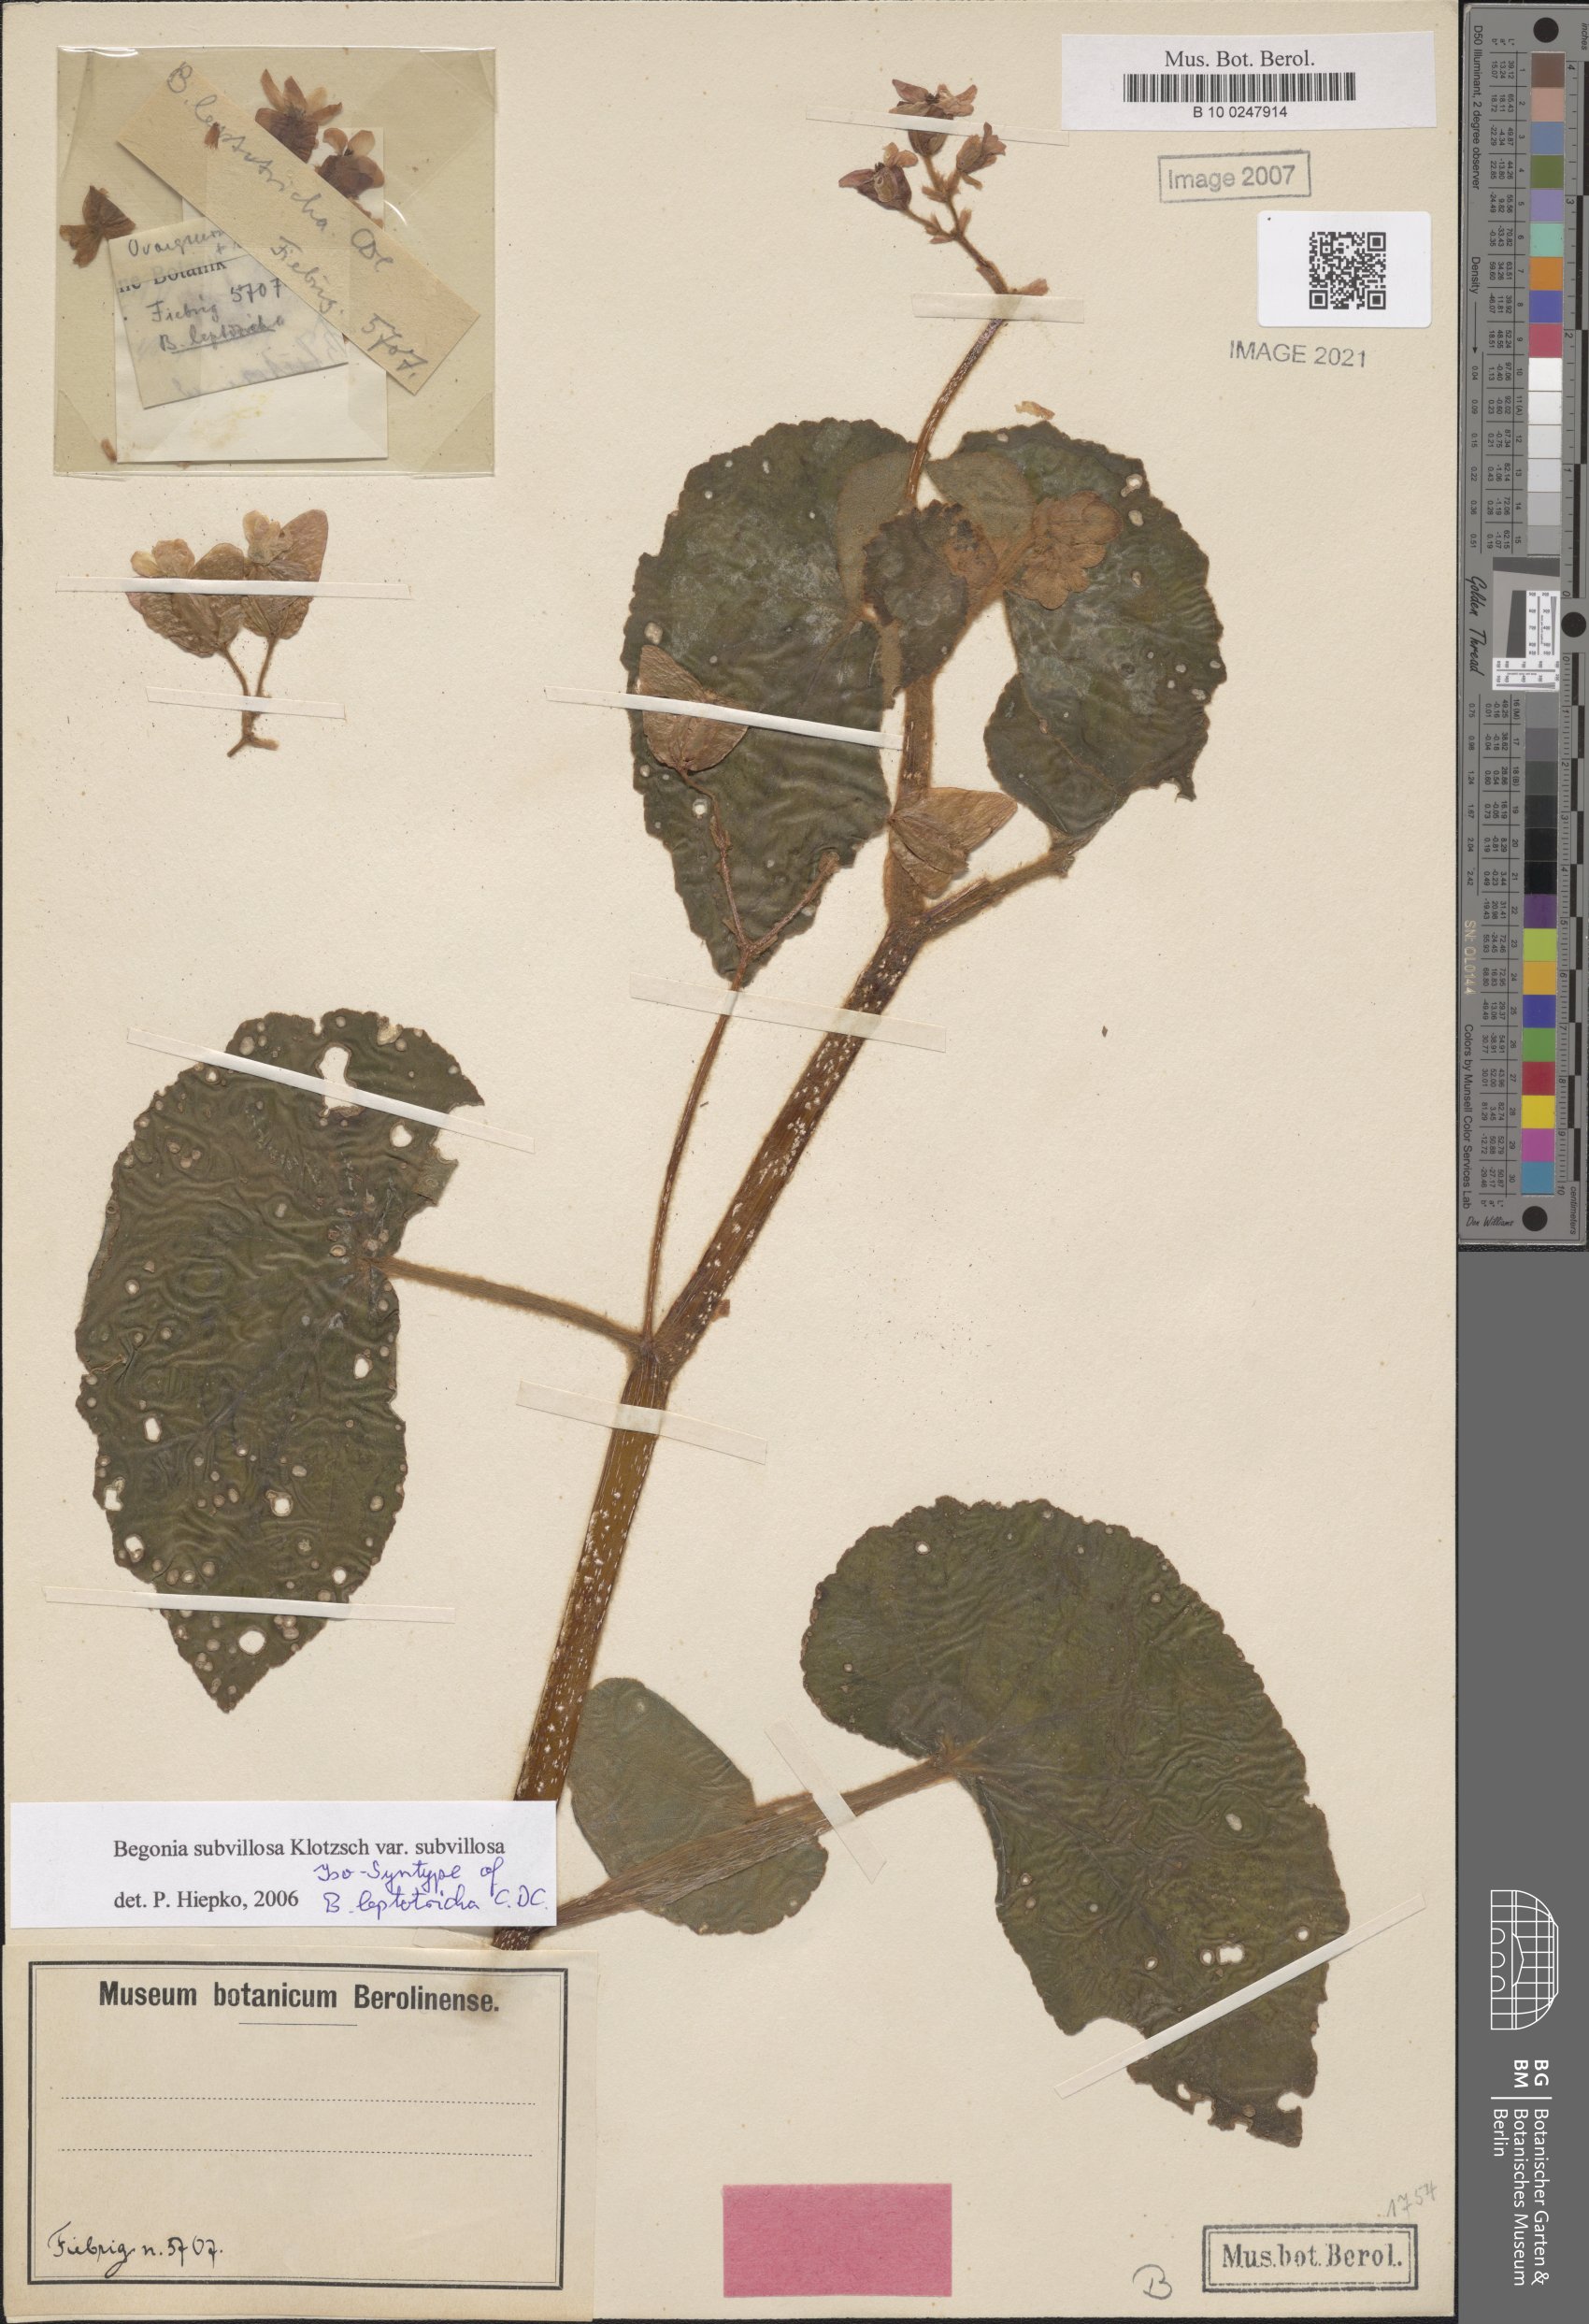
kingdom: Plantae
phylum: Tracheophyta
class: Magnoliopsida
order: Cucurbitales
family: Begoniaceae
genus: Begonia
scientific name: Begonia subvillosa
